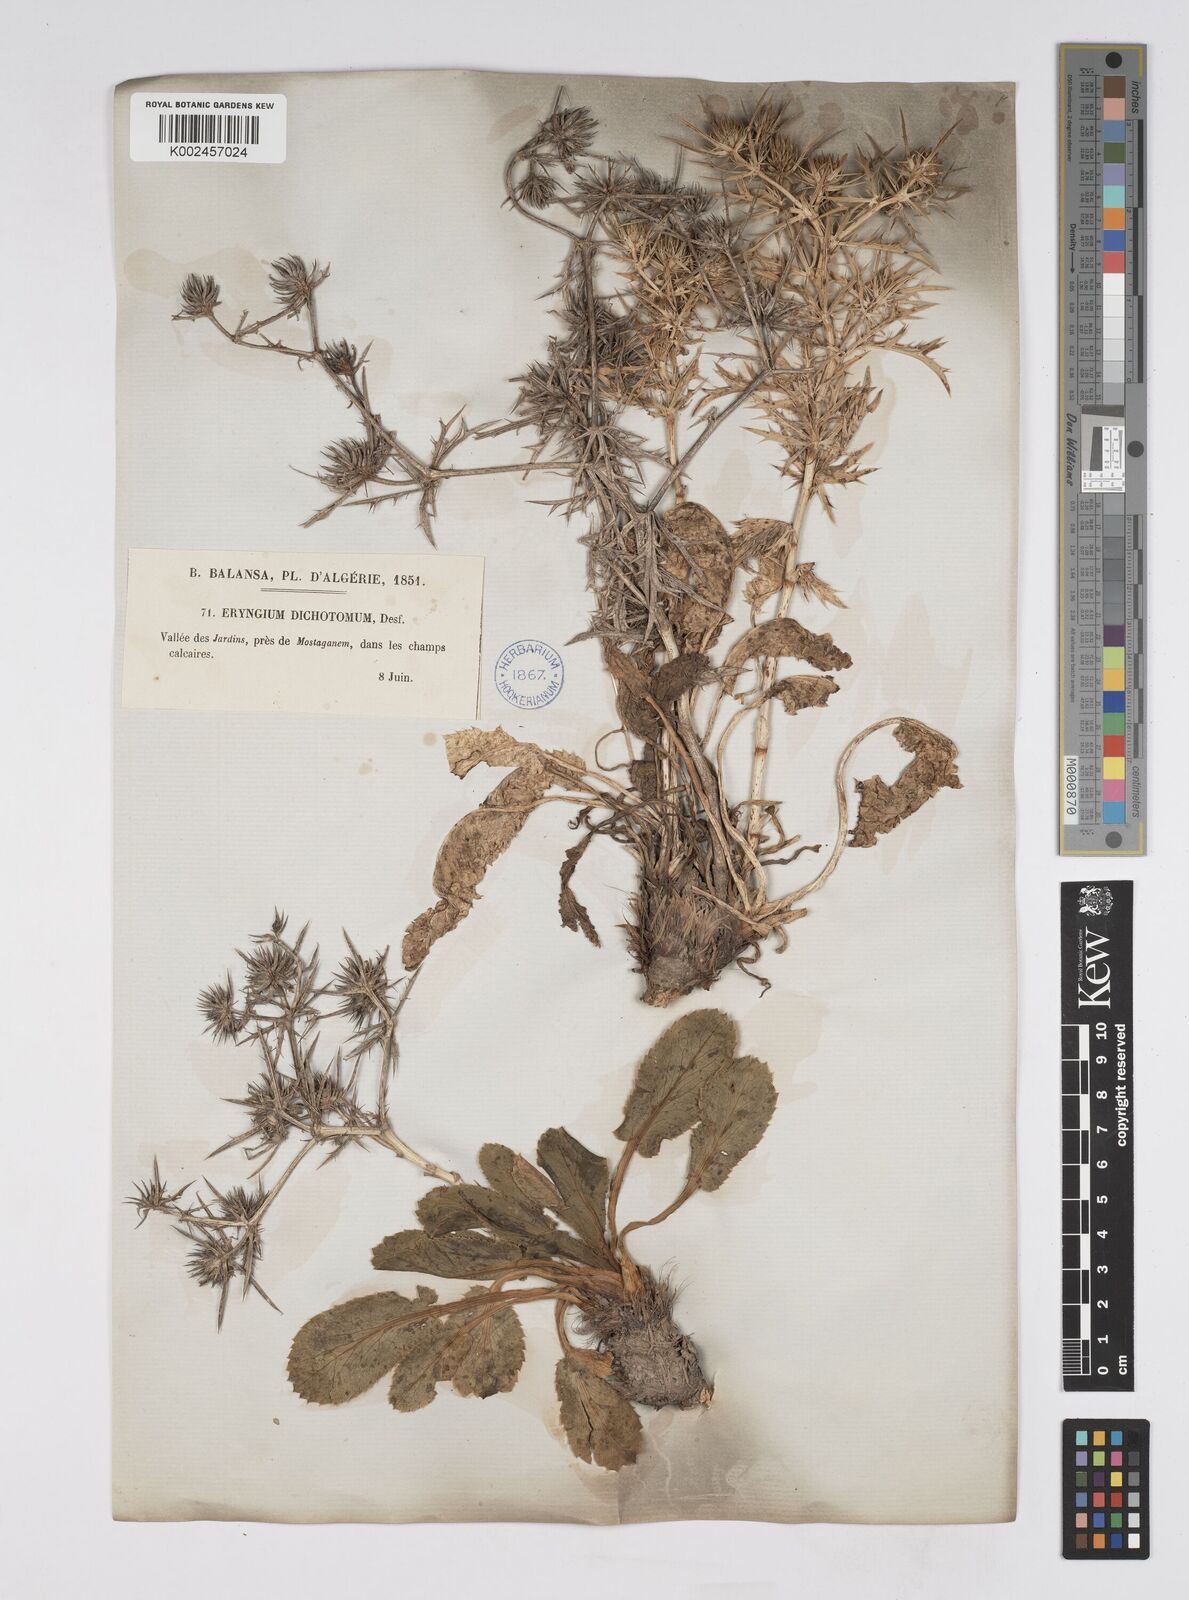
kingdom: Plantae
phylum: Tracheophyta
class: Magnoliopsida
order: Apiales
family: Apiaceae
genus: Eryngium
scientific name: Eryngium dichotomum
